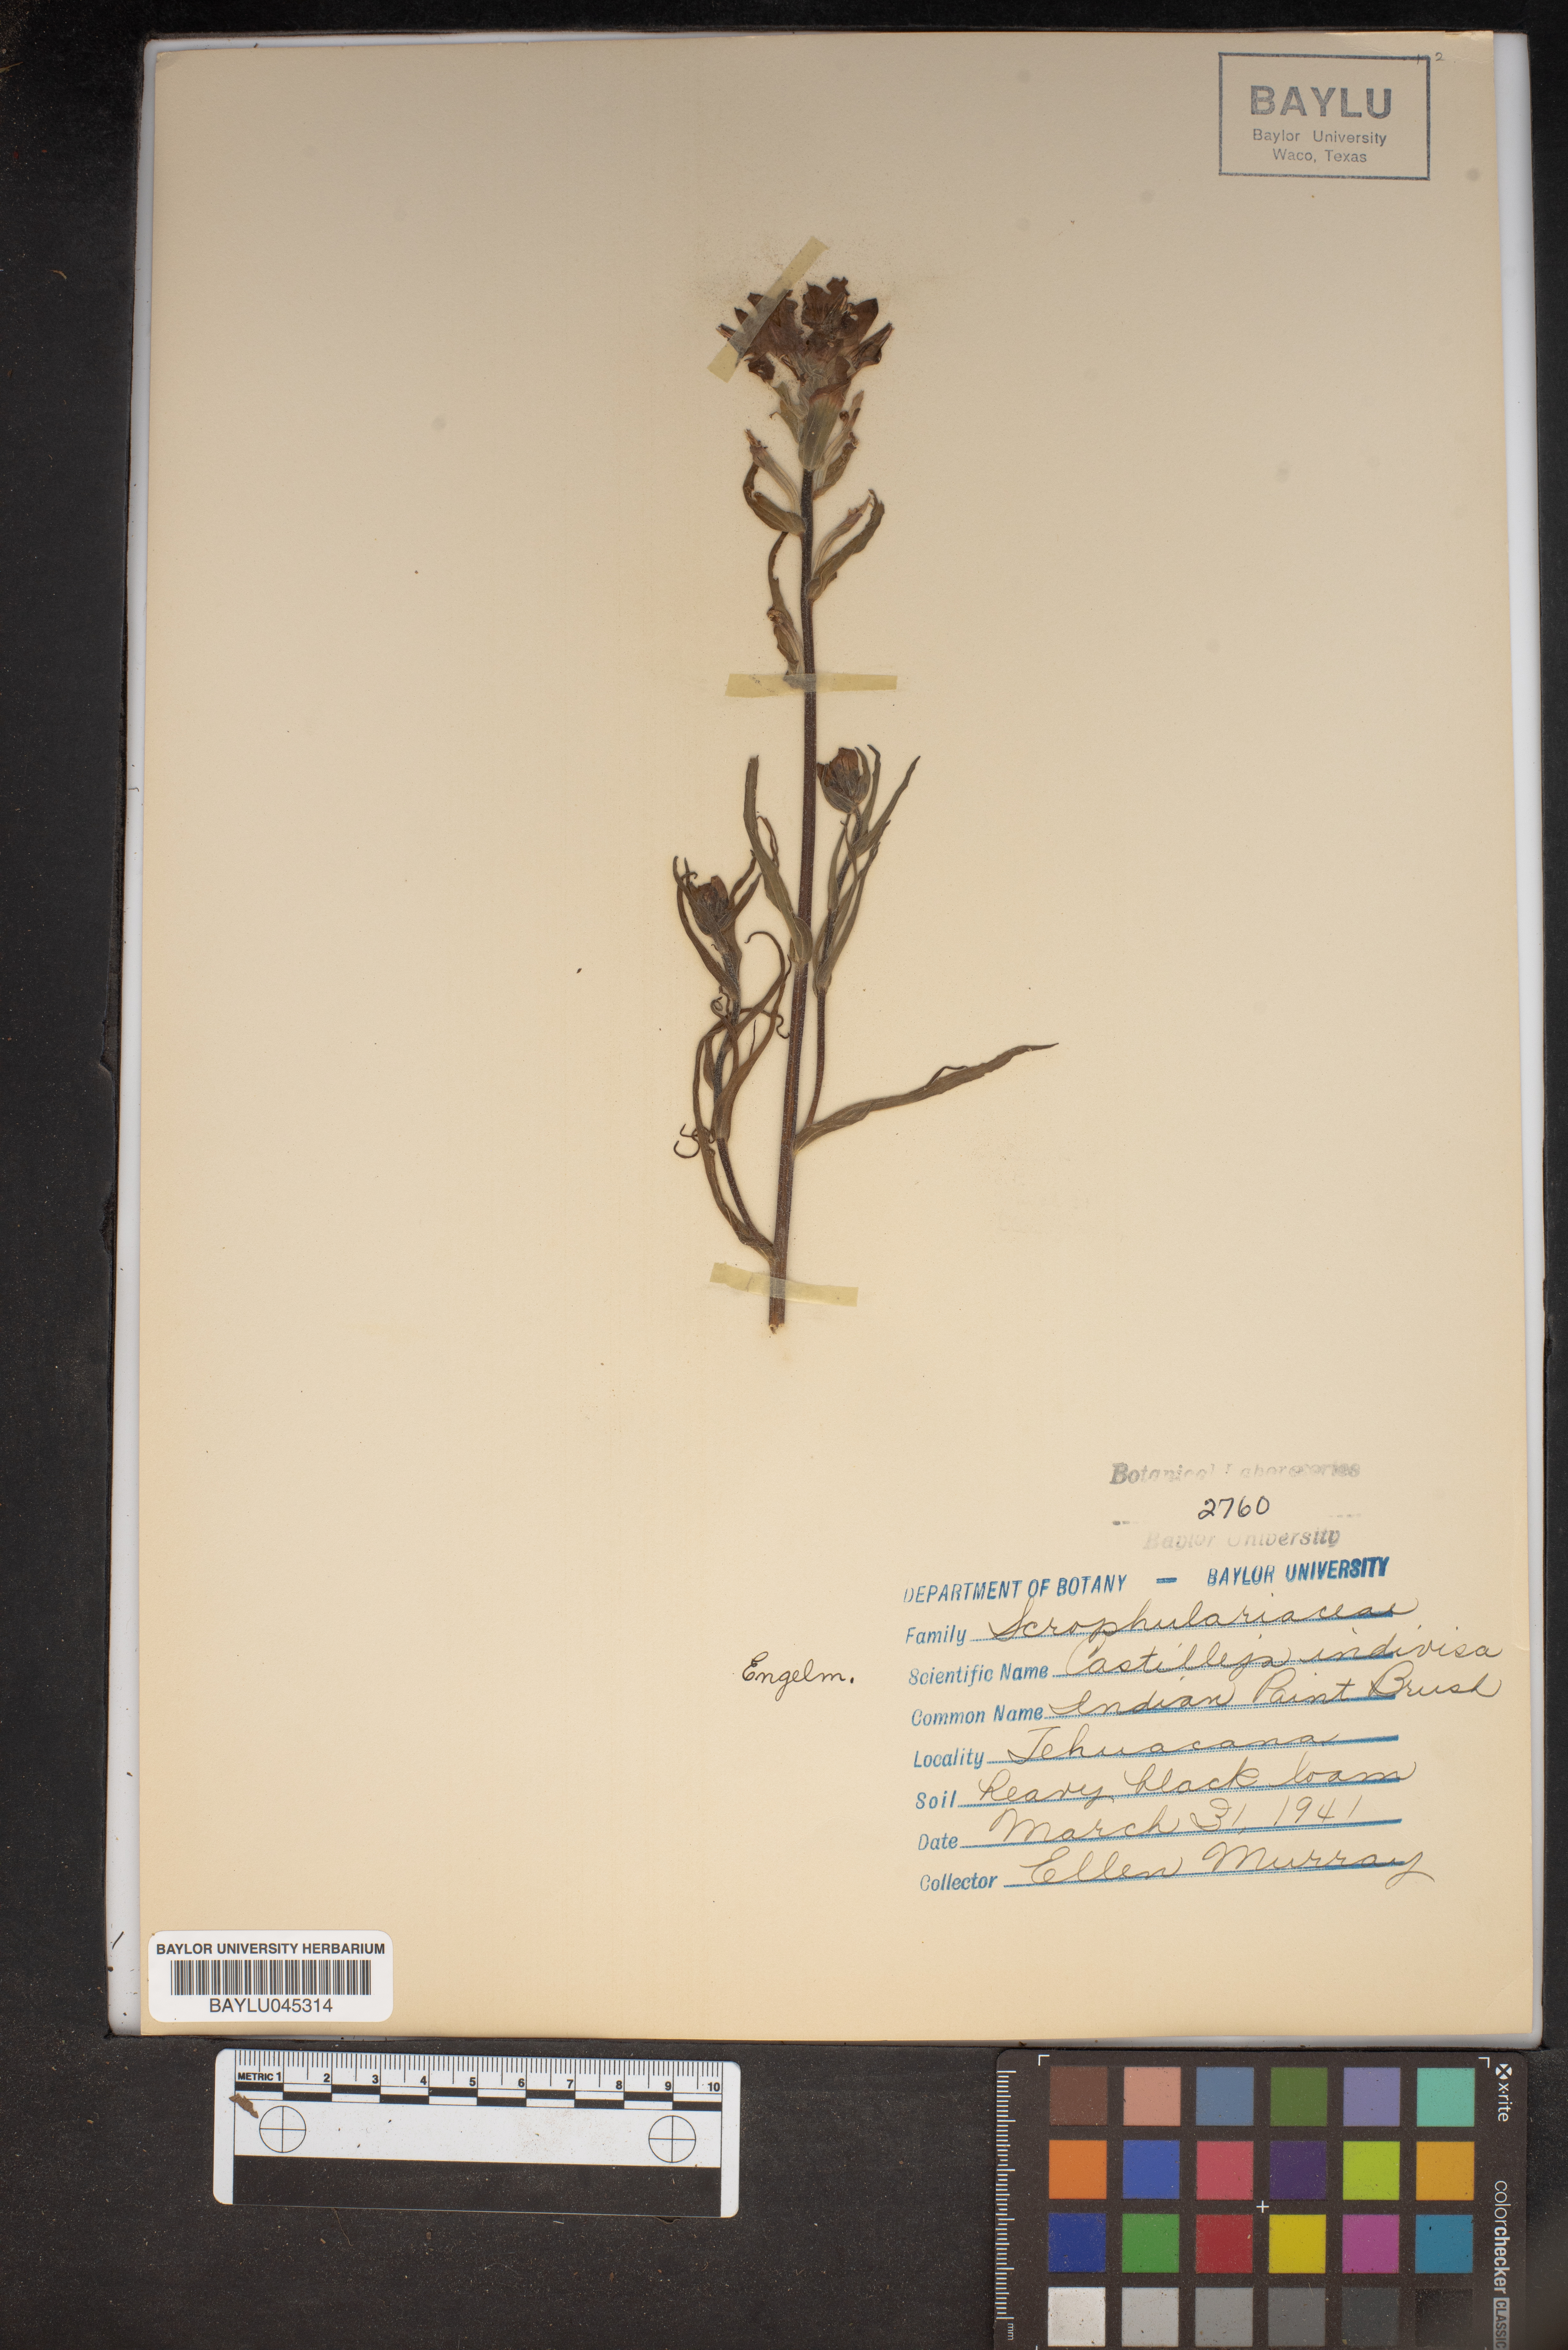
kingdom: Plantae
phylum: Tracheophyta
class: Magnoliopsida
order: Lamiales
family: Orobanchaceae
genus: Castilleja
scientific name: Castilleja indivisa
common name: Texas paintbrush
